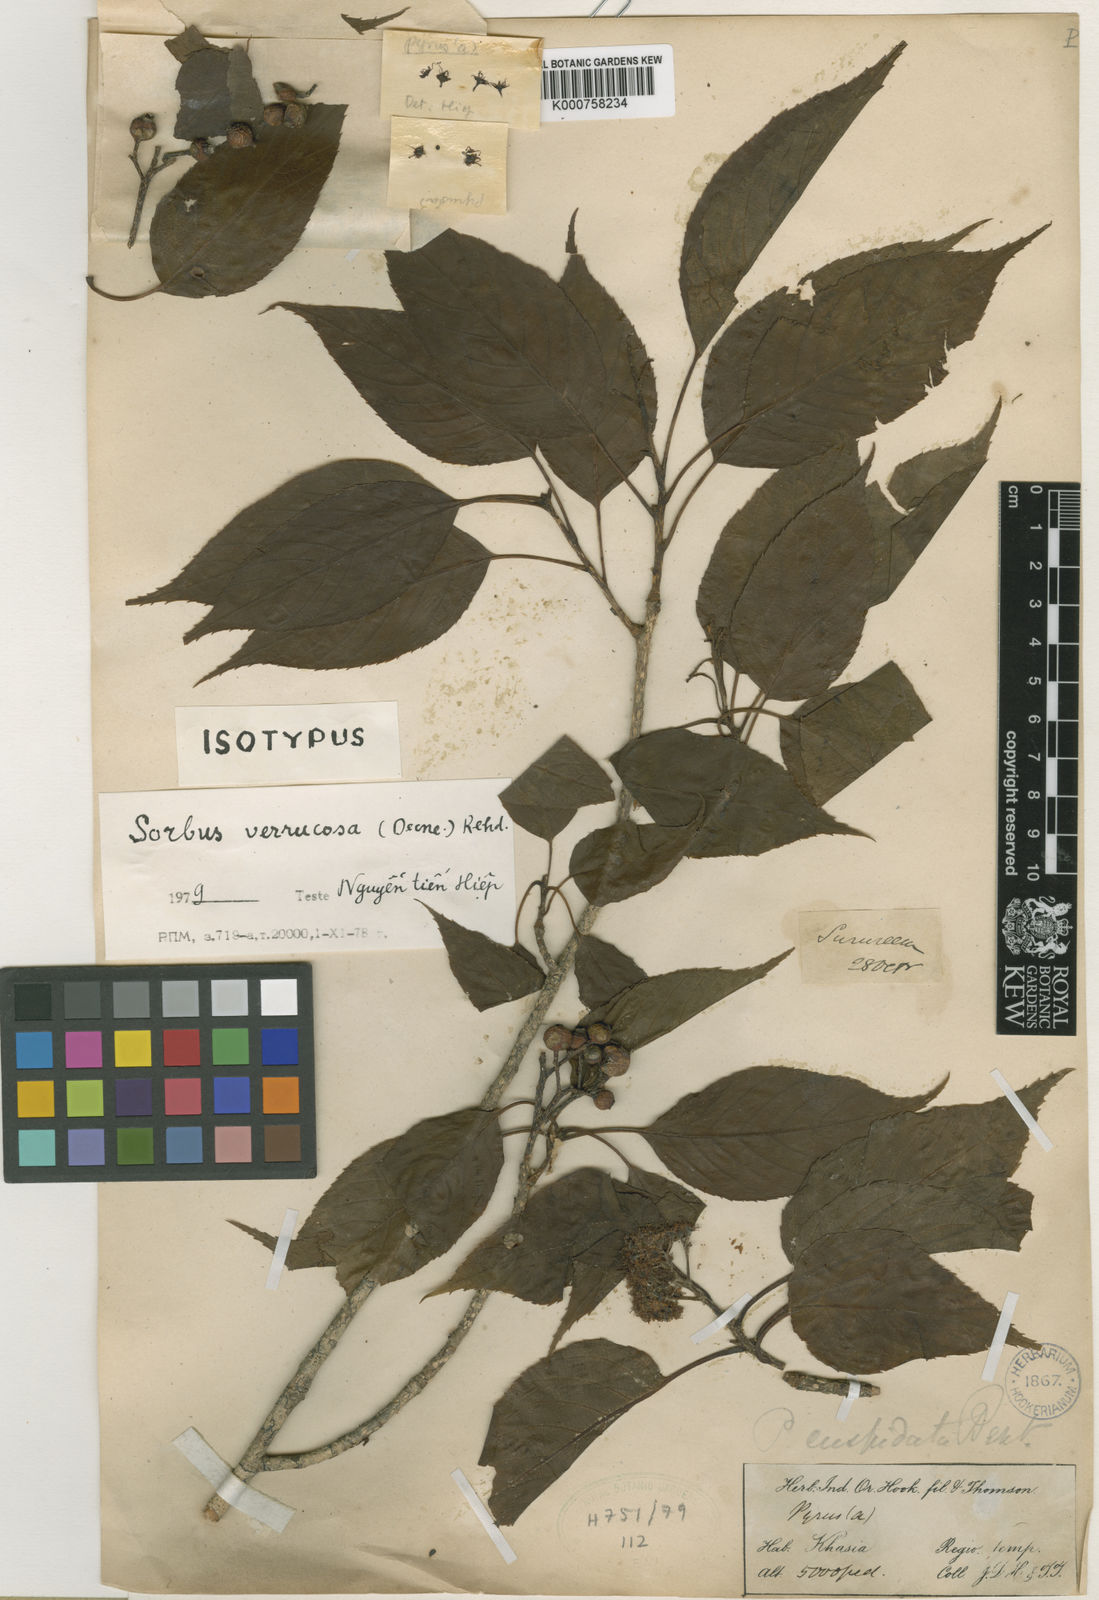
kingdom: Plantae
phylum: Tracheophyta
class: Magnoliopsida
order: Rosales
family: Rosaceae
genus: Micromeles
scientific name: Micromeles cuspidata
